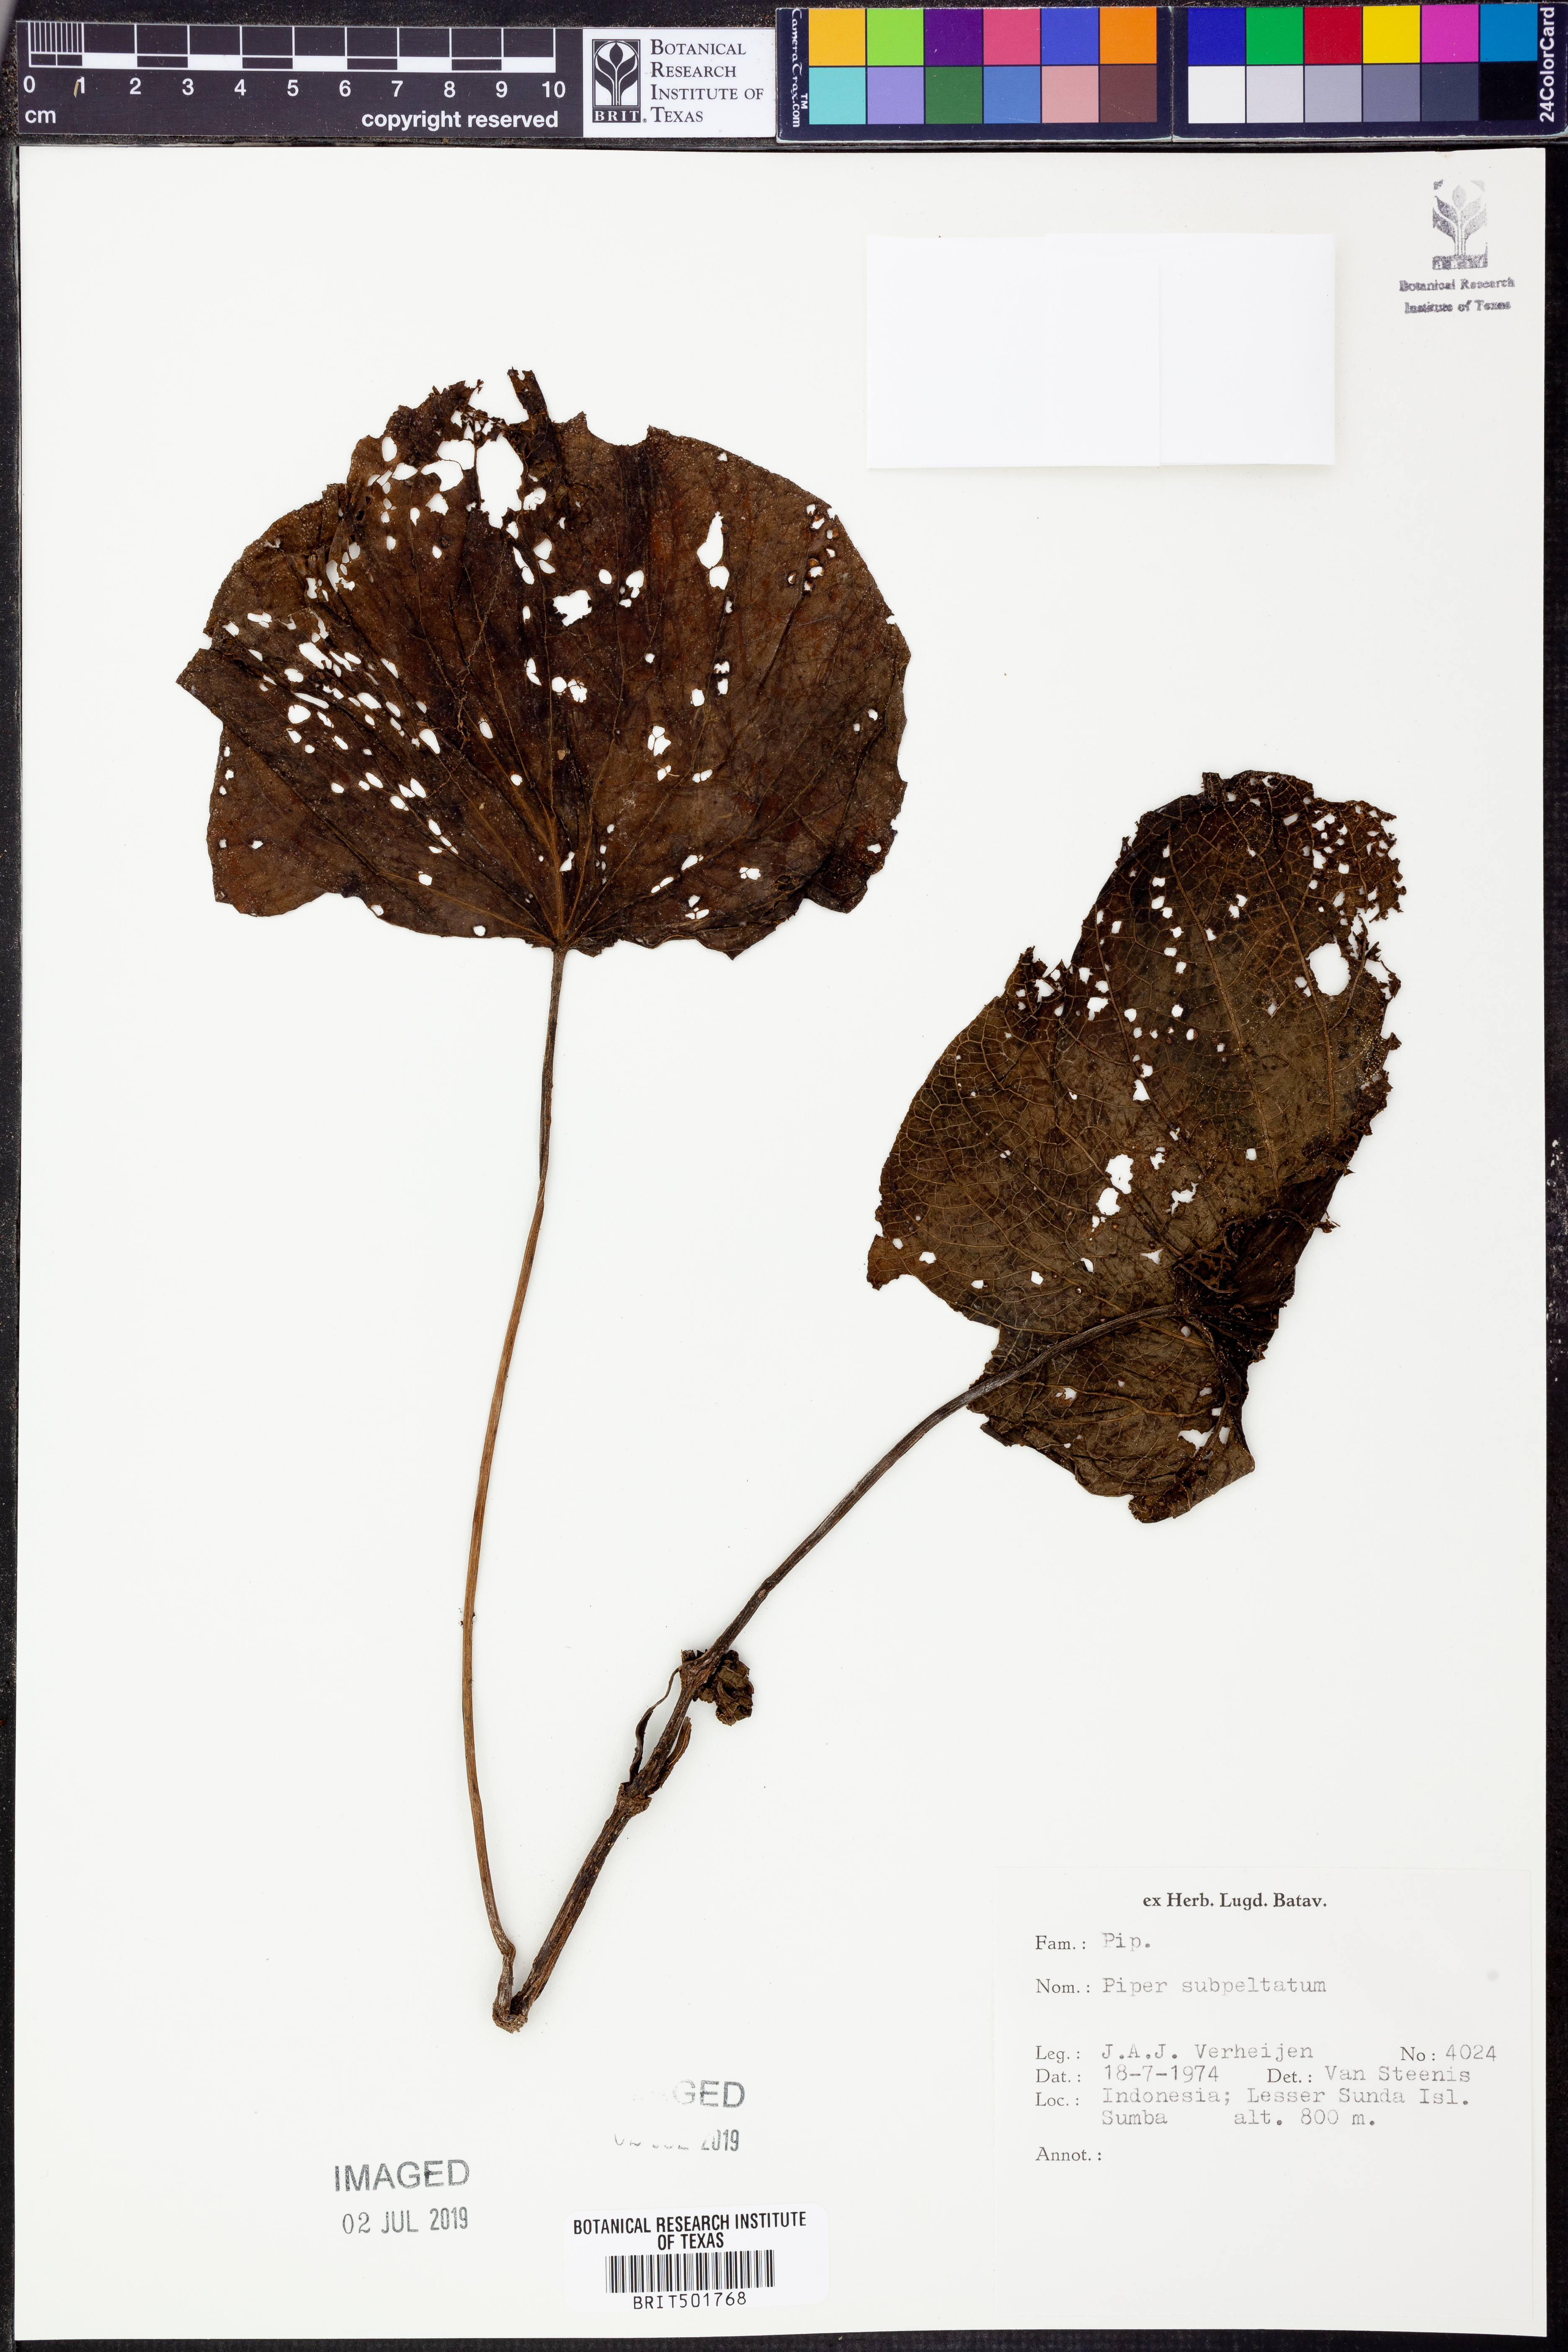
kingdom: Plantae
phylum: Tracheophyta
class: Magnoliopsida
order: Piperales
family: Piperaceae
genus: Piper
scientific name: Piper umbellatum
